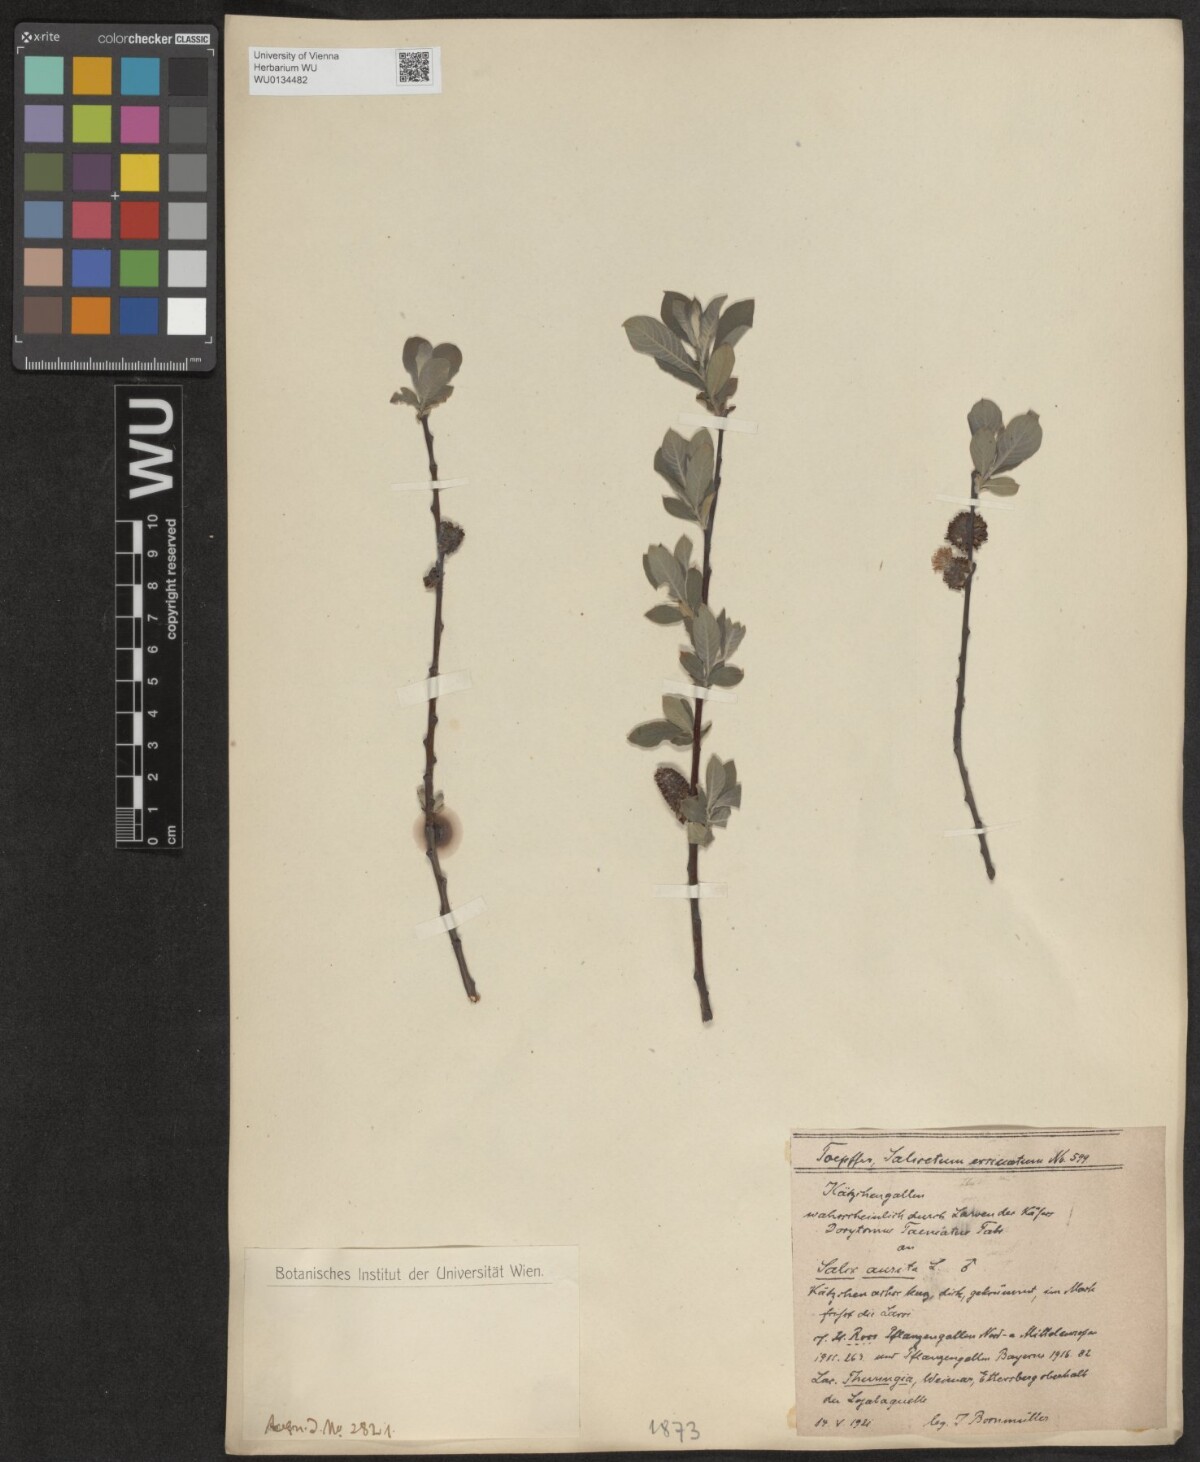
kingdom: Plantae
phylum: Tracheophyta
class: Magnoliopsida
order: Malpighiales
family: Salicaceae
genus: Salix
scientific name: Salix aurita
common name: Eared willow
